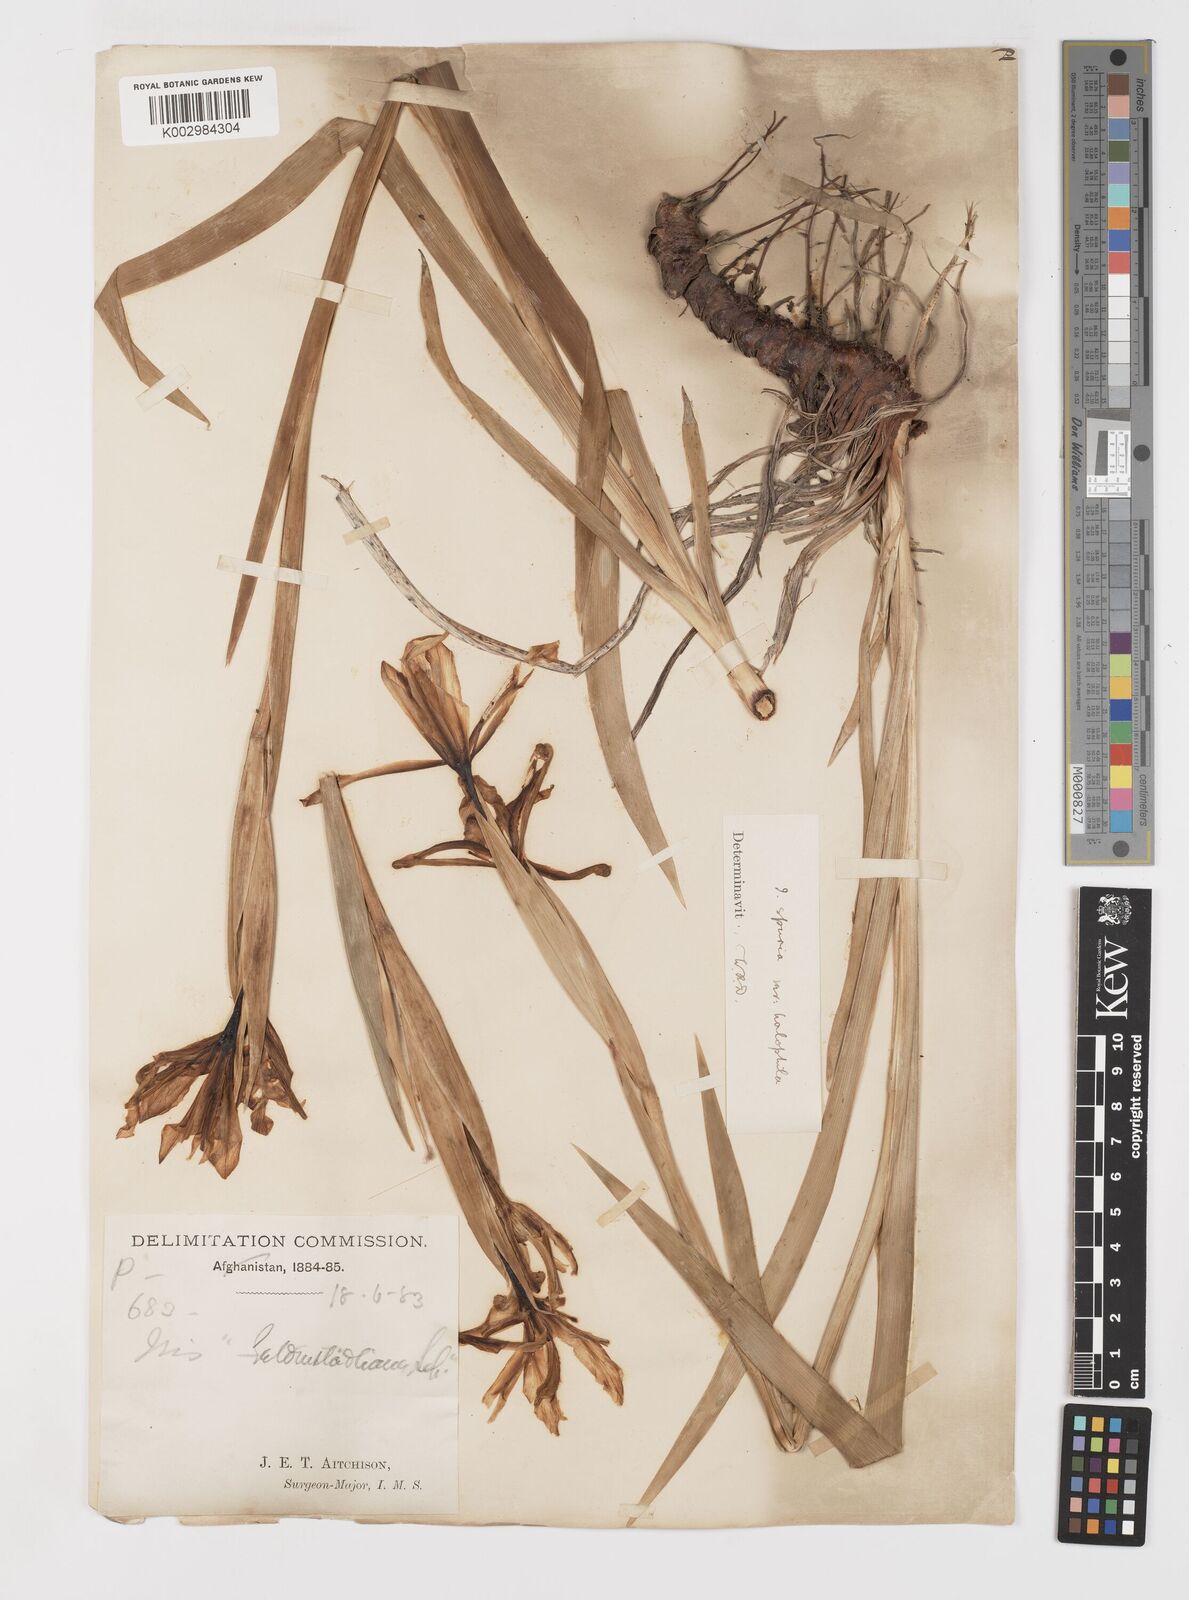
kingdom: Plantae
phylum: Tracheophyta
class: Liliopsida
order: Asparagales
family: Iridaceae
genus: Iris
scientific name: Iris spuria
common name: Blue iris
